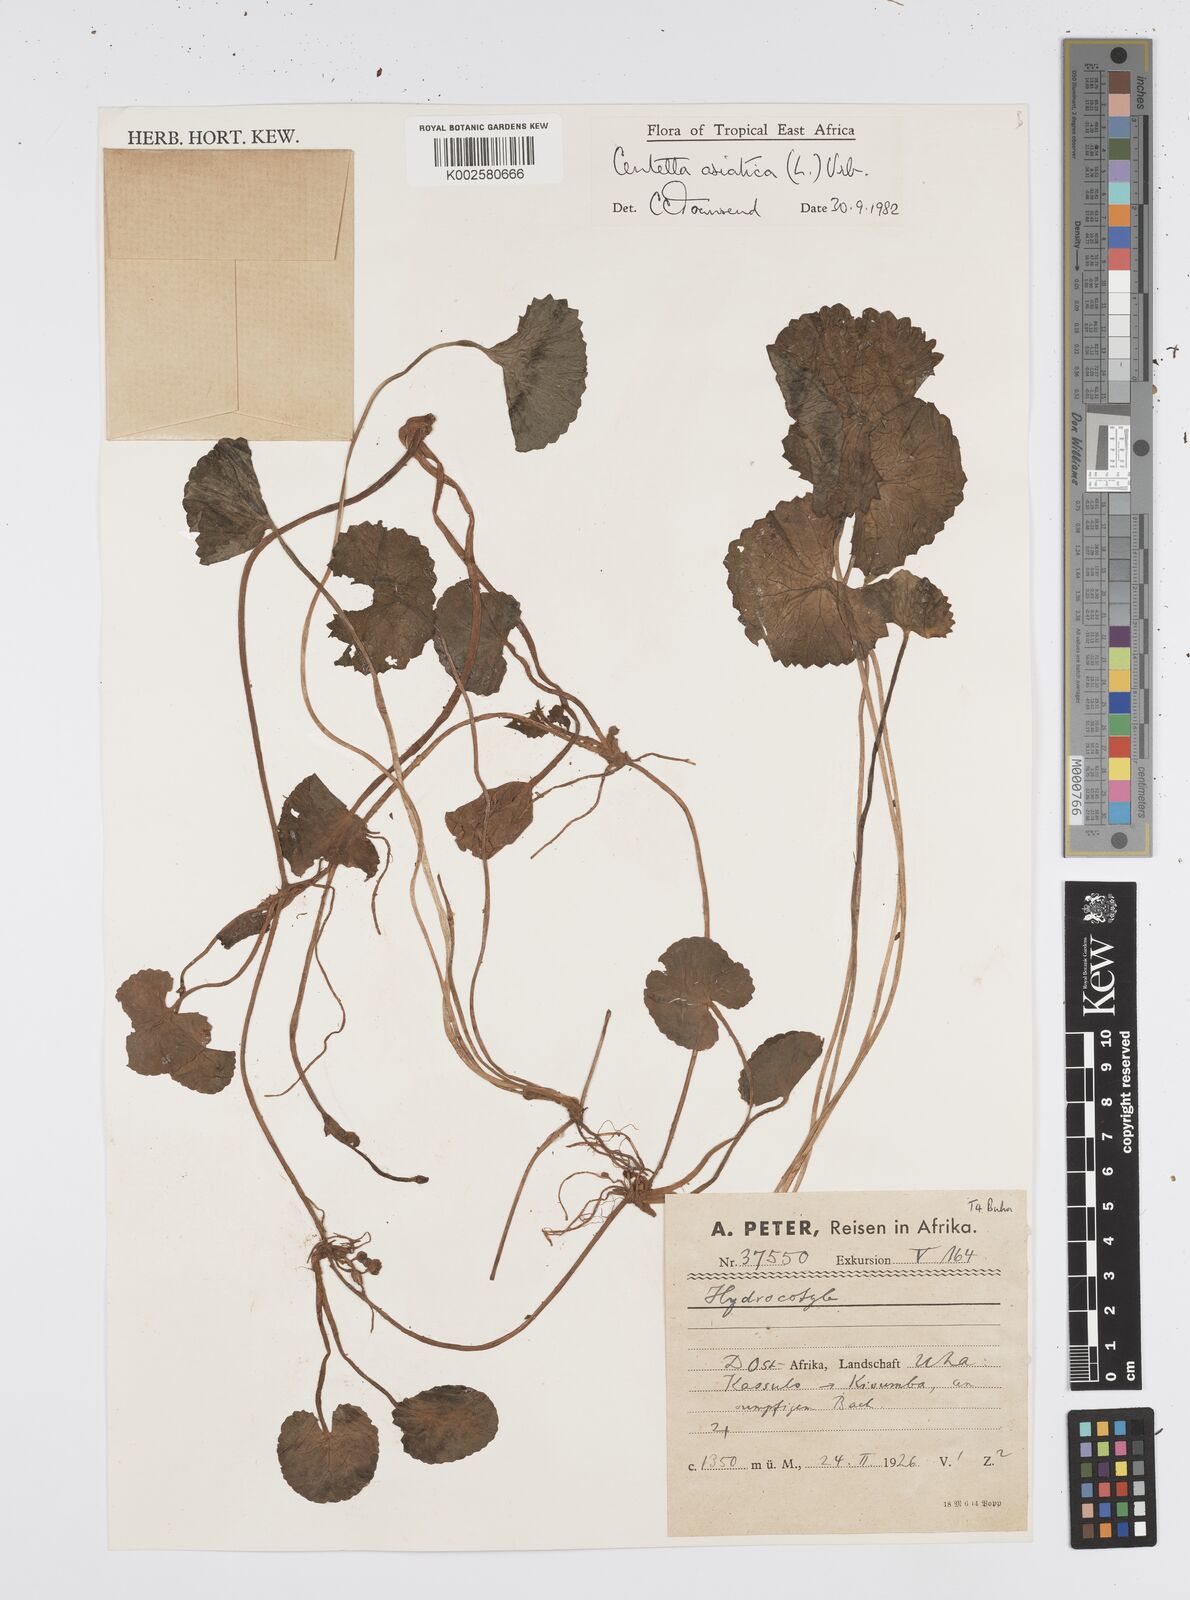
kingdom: Plantae
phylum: Tracheophyta
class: Magnoliopsida
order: Apiales
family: Apiaceae
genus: Centella
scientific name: Centella asiatica
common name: Spadeleaf
